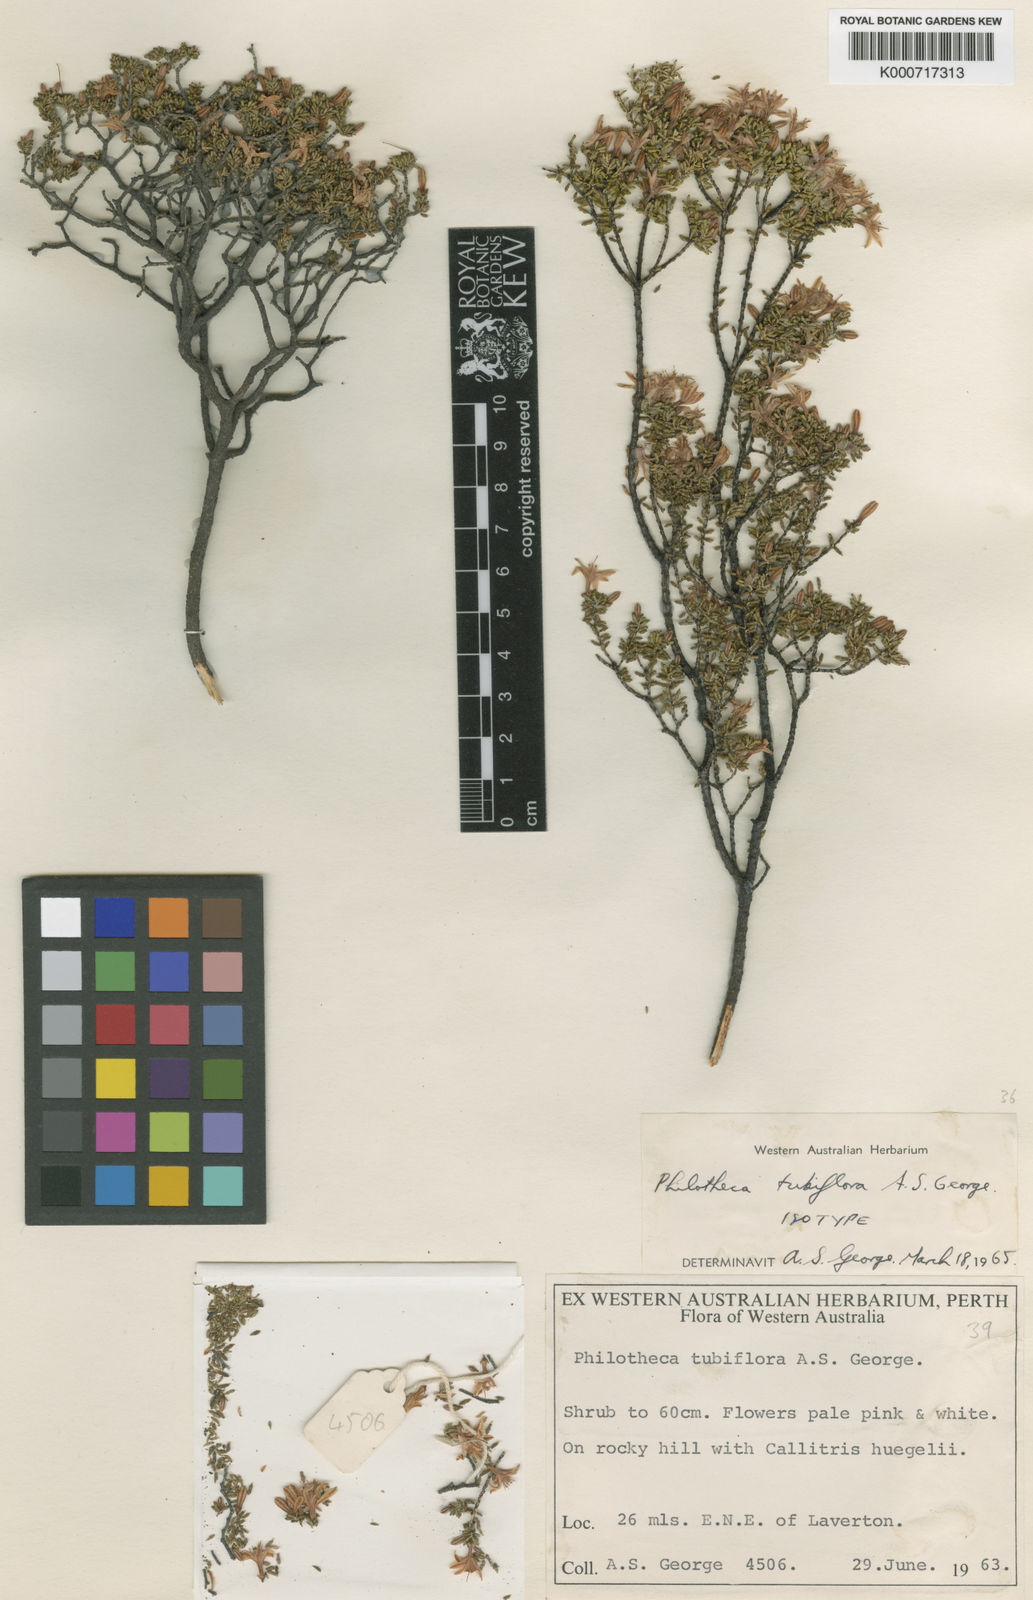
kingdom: Plantae
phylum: Tracheophyta
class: Magnoliopsida
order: Sapindales
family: Rutaceae
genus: Philotheca
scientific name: Philotheca tubiflora
